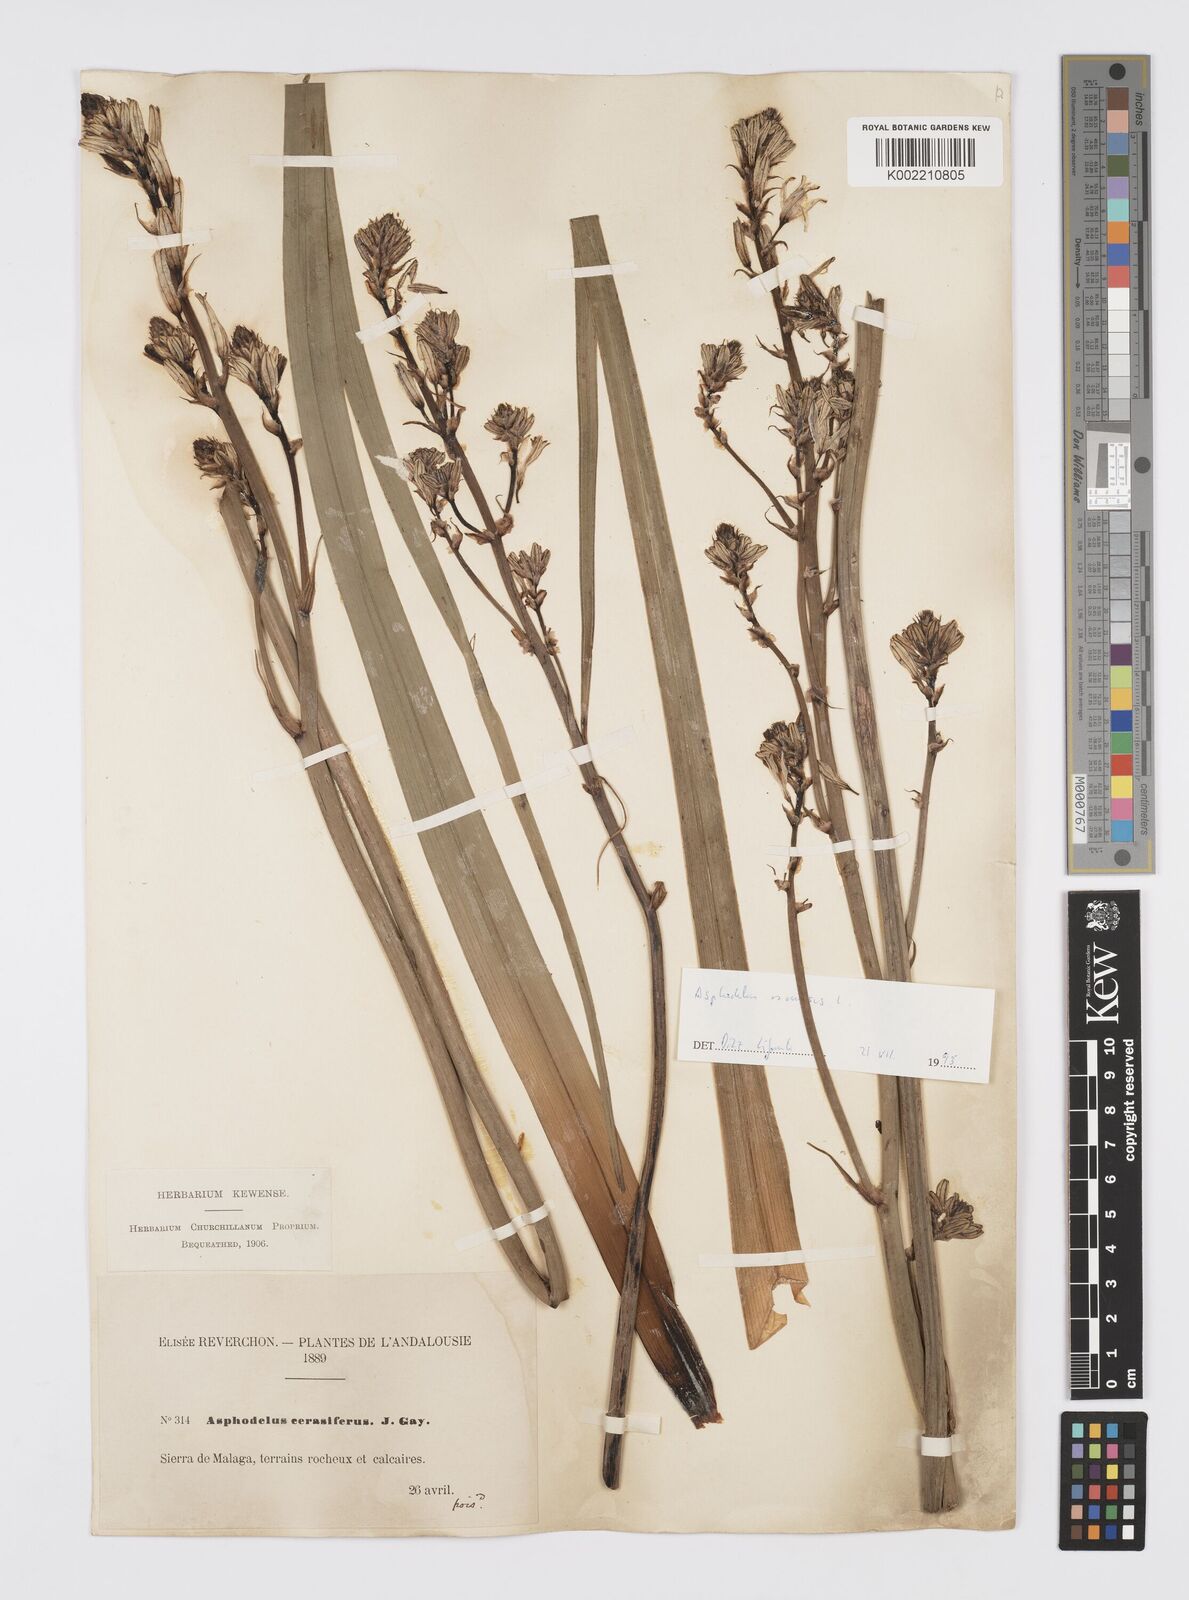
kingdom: Plantae
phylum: Tracheophyta
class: Liliopsida
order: Asparagales
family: Asphodelaceae
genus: Asphodelus
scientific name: Asphodelus cerasifer
